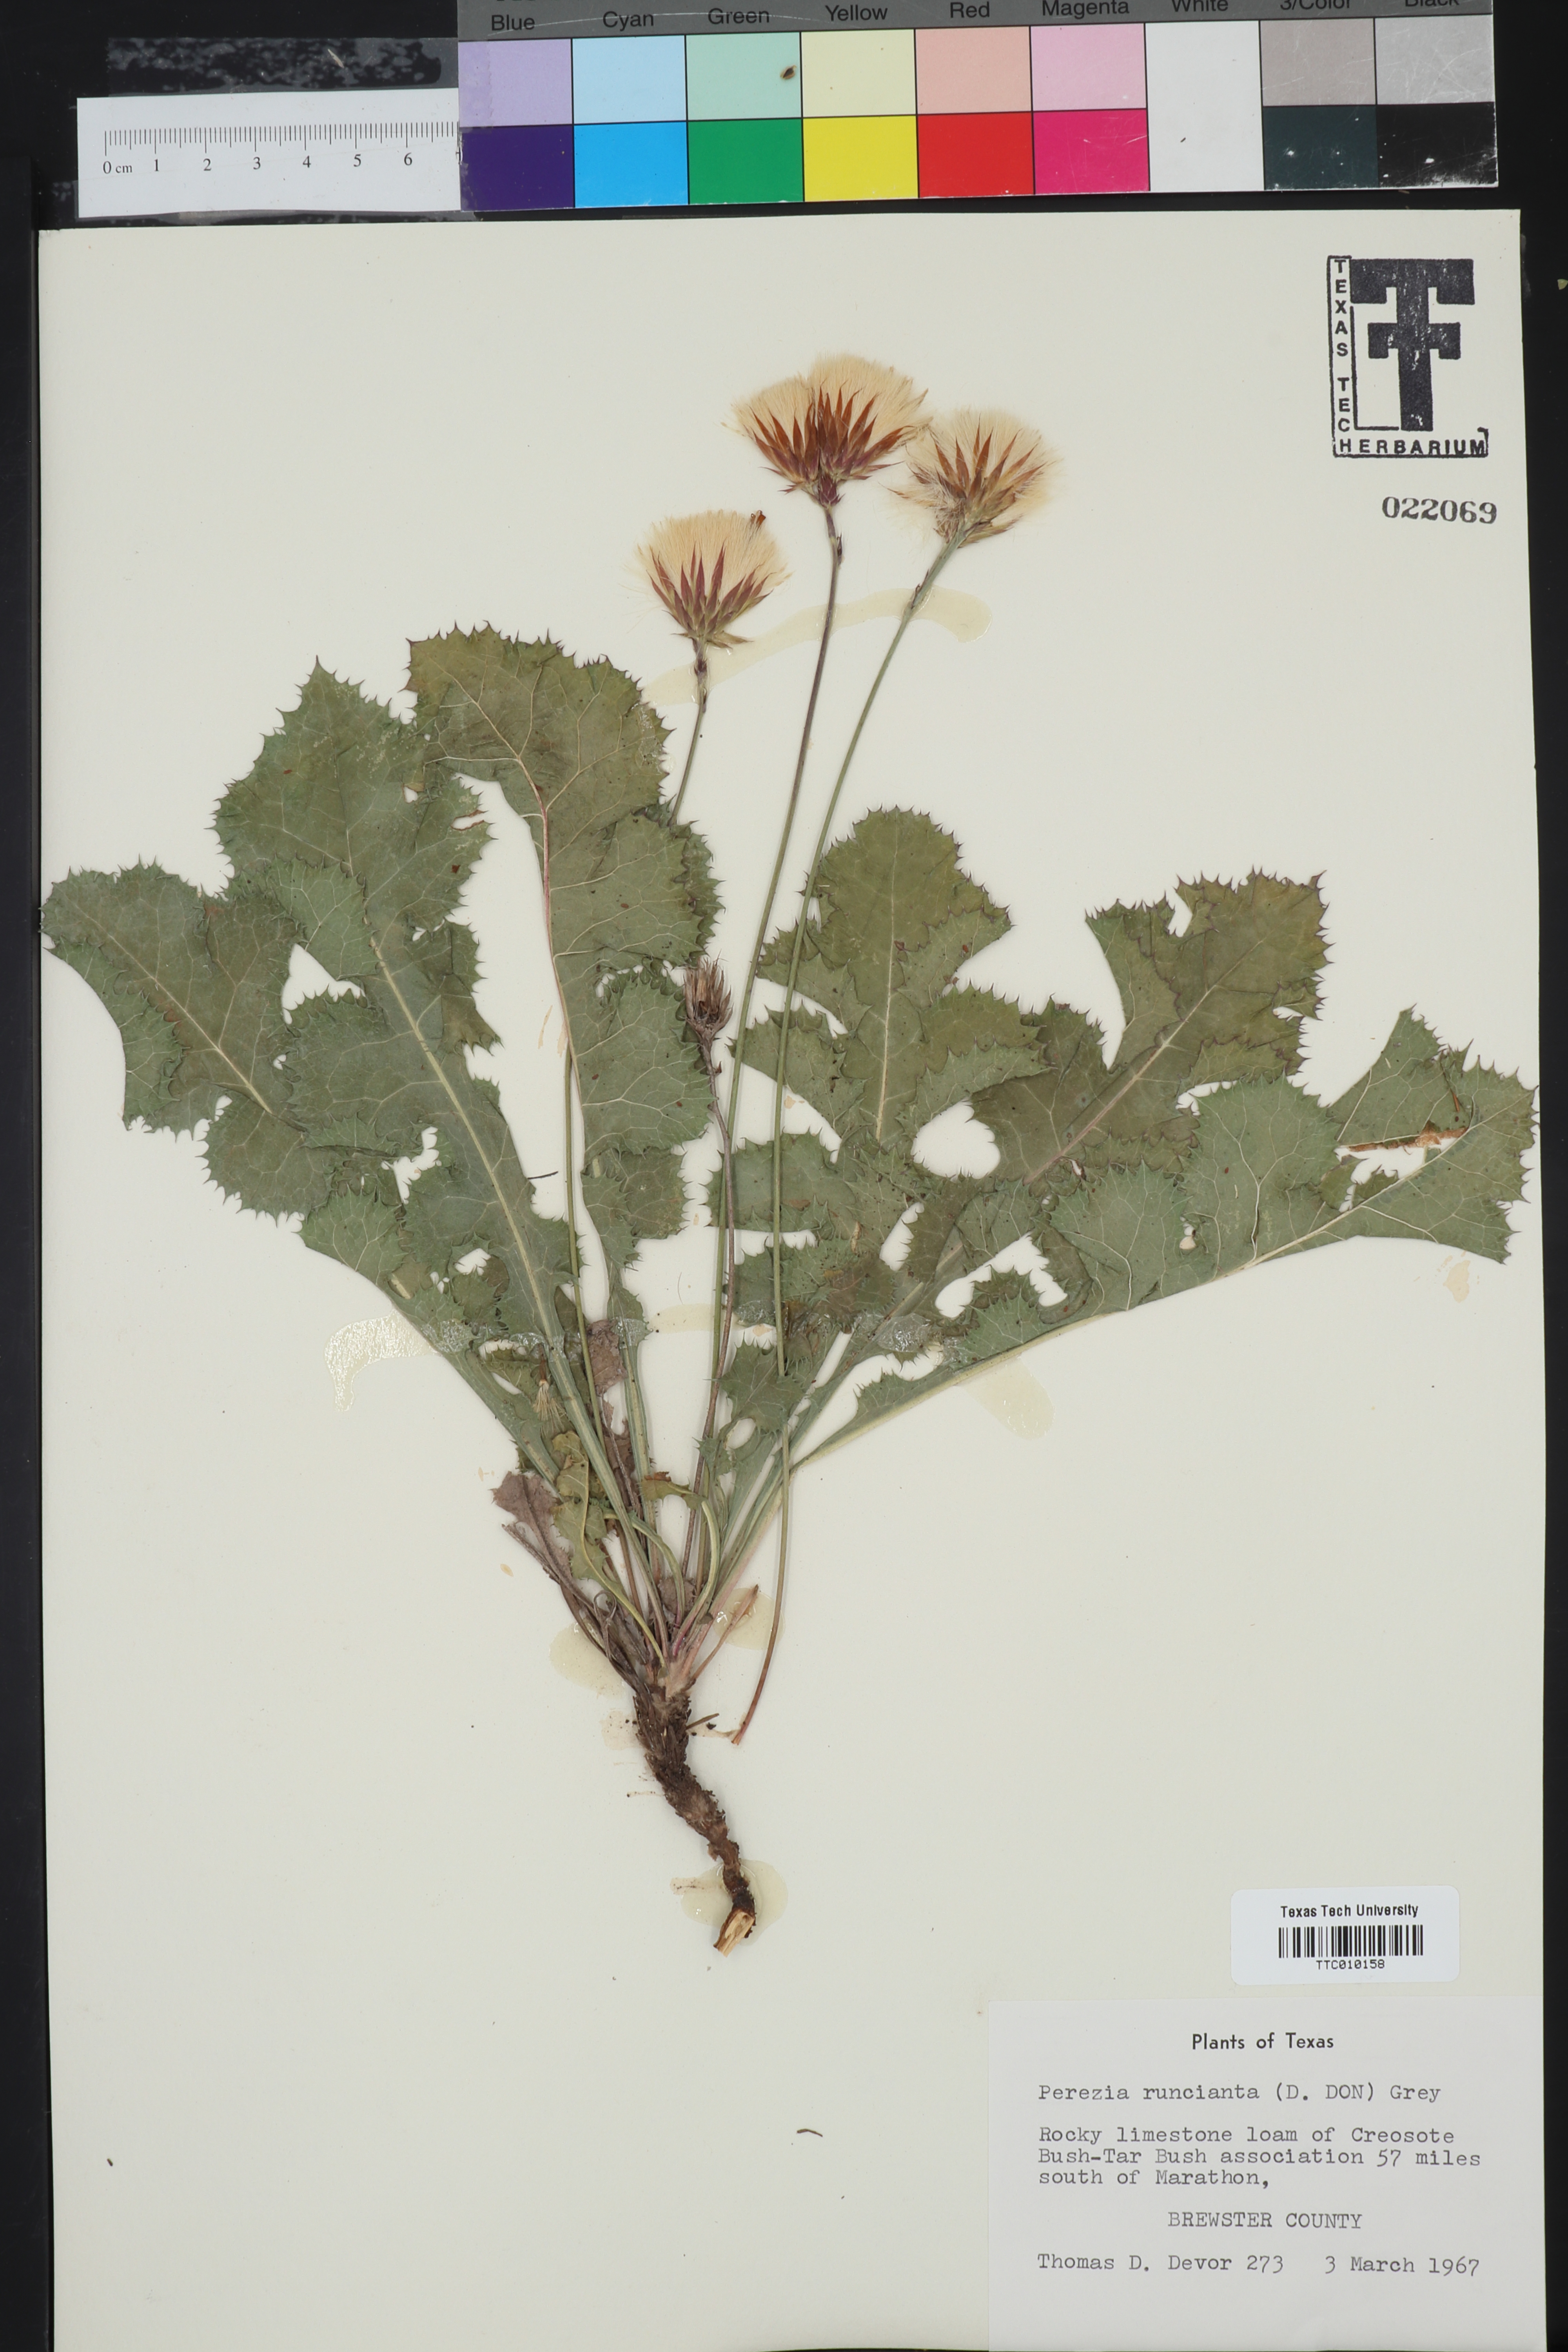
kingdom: Plantae
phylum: Tracheophyta
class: Magnoliopsida
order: Asterales
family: Asteraceae
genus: Acourtia
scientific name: Acourtia runcinata
